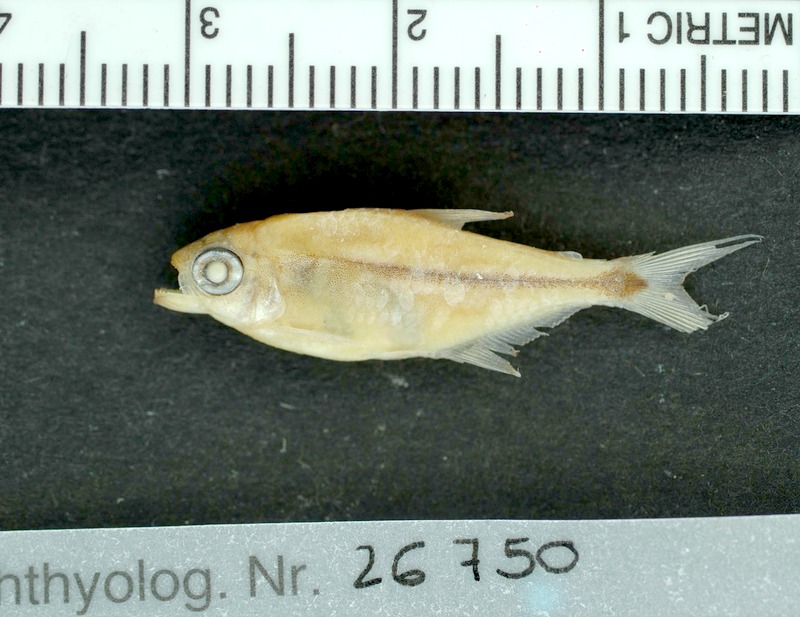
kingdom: Animalia
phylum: Chordata
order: Characiformes
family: Characidae
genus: Hemigrammus
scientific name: Hemigrammus guyanensis
